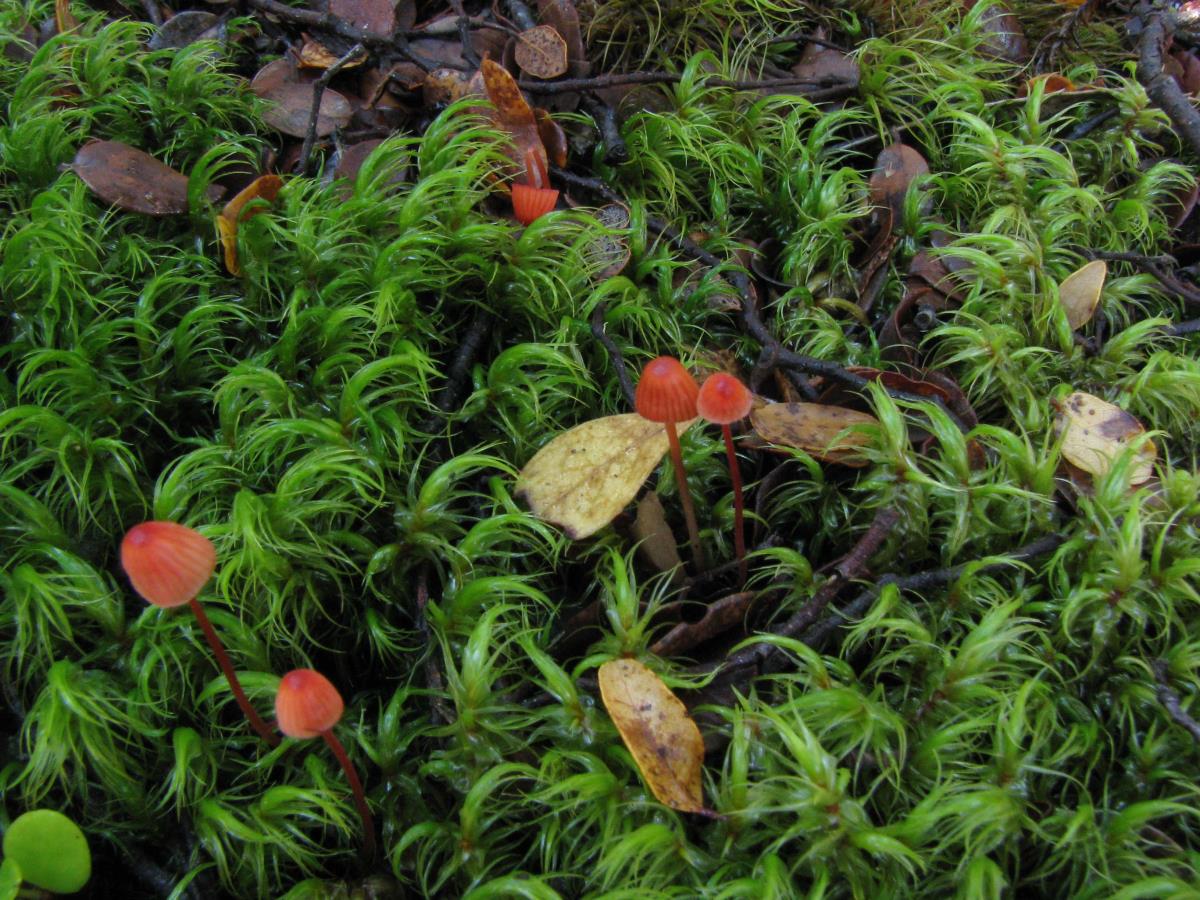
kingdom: Fungi
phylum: Basidiomycota
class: Agaricomycetes
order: Agaricales
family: Mycenaceae
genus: Mycena
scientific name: Mycena ura
